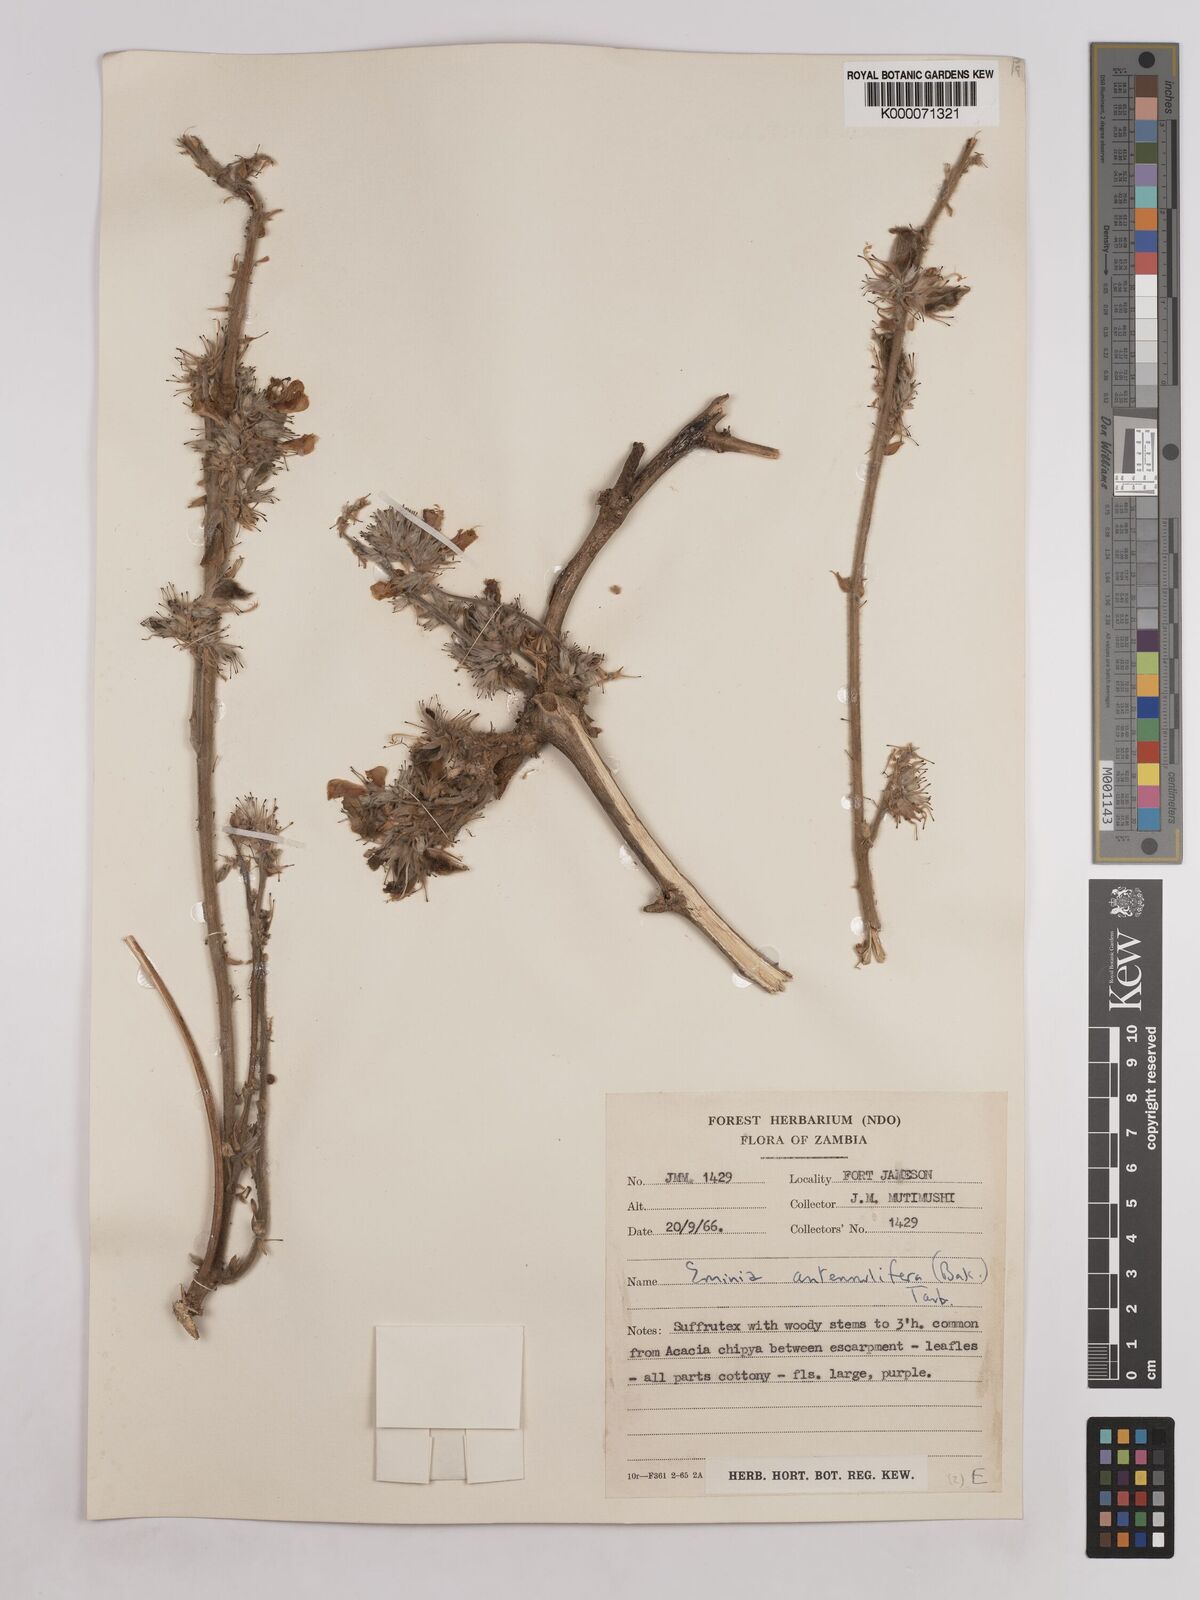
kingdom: Plantae
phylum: Tracheophyta
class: Magnoliopsida
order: Fabales
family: Fabaceae
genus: Eminia
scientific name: Eminia antennulifera
